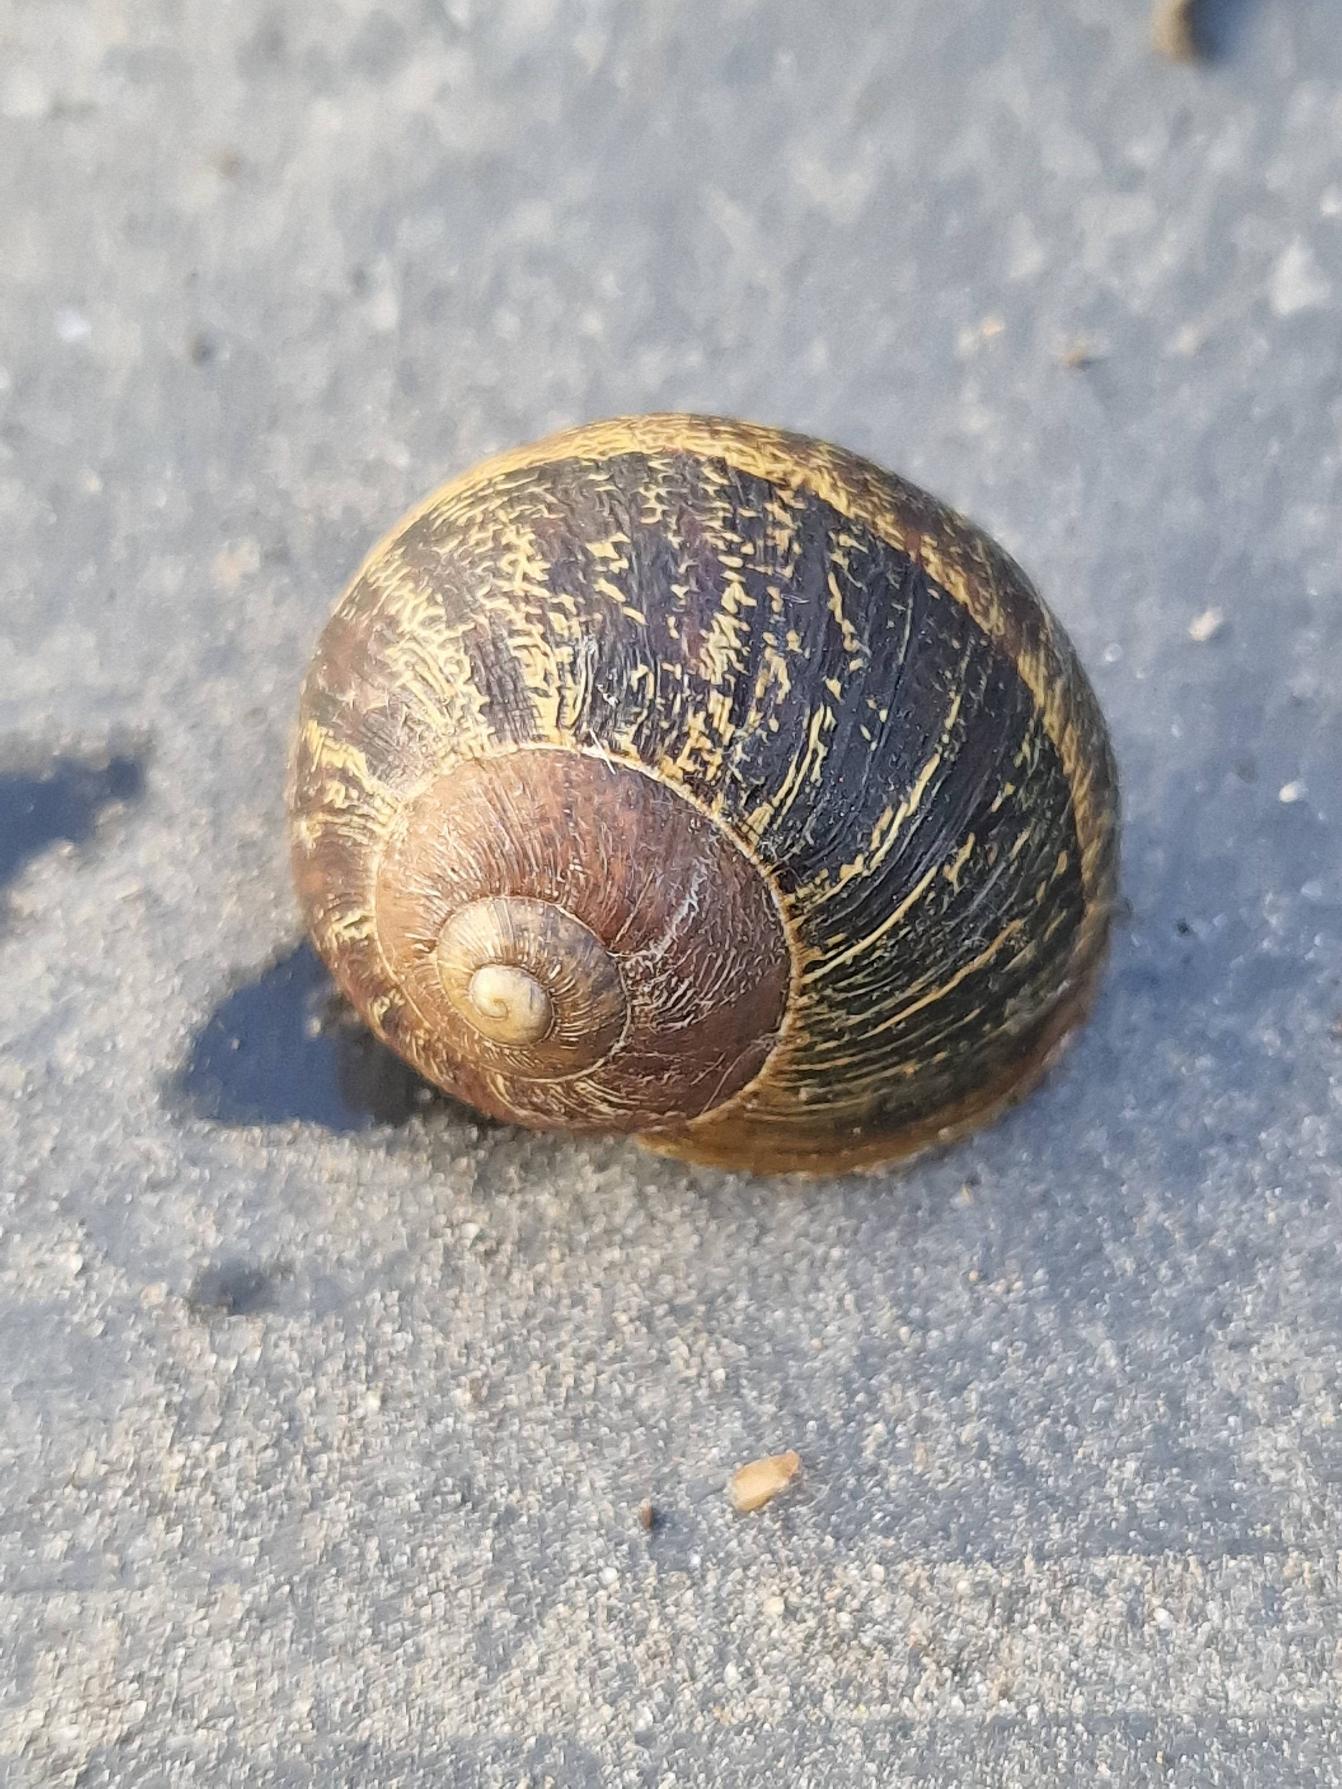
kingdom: Animalia
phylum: Mollusca
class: Gastropoda
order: Stylommatophora
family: Helicidae
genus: Cornu
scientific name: Cornu aspersum
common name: Plettet voldsnegl
